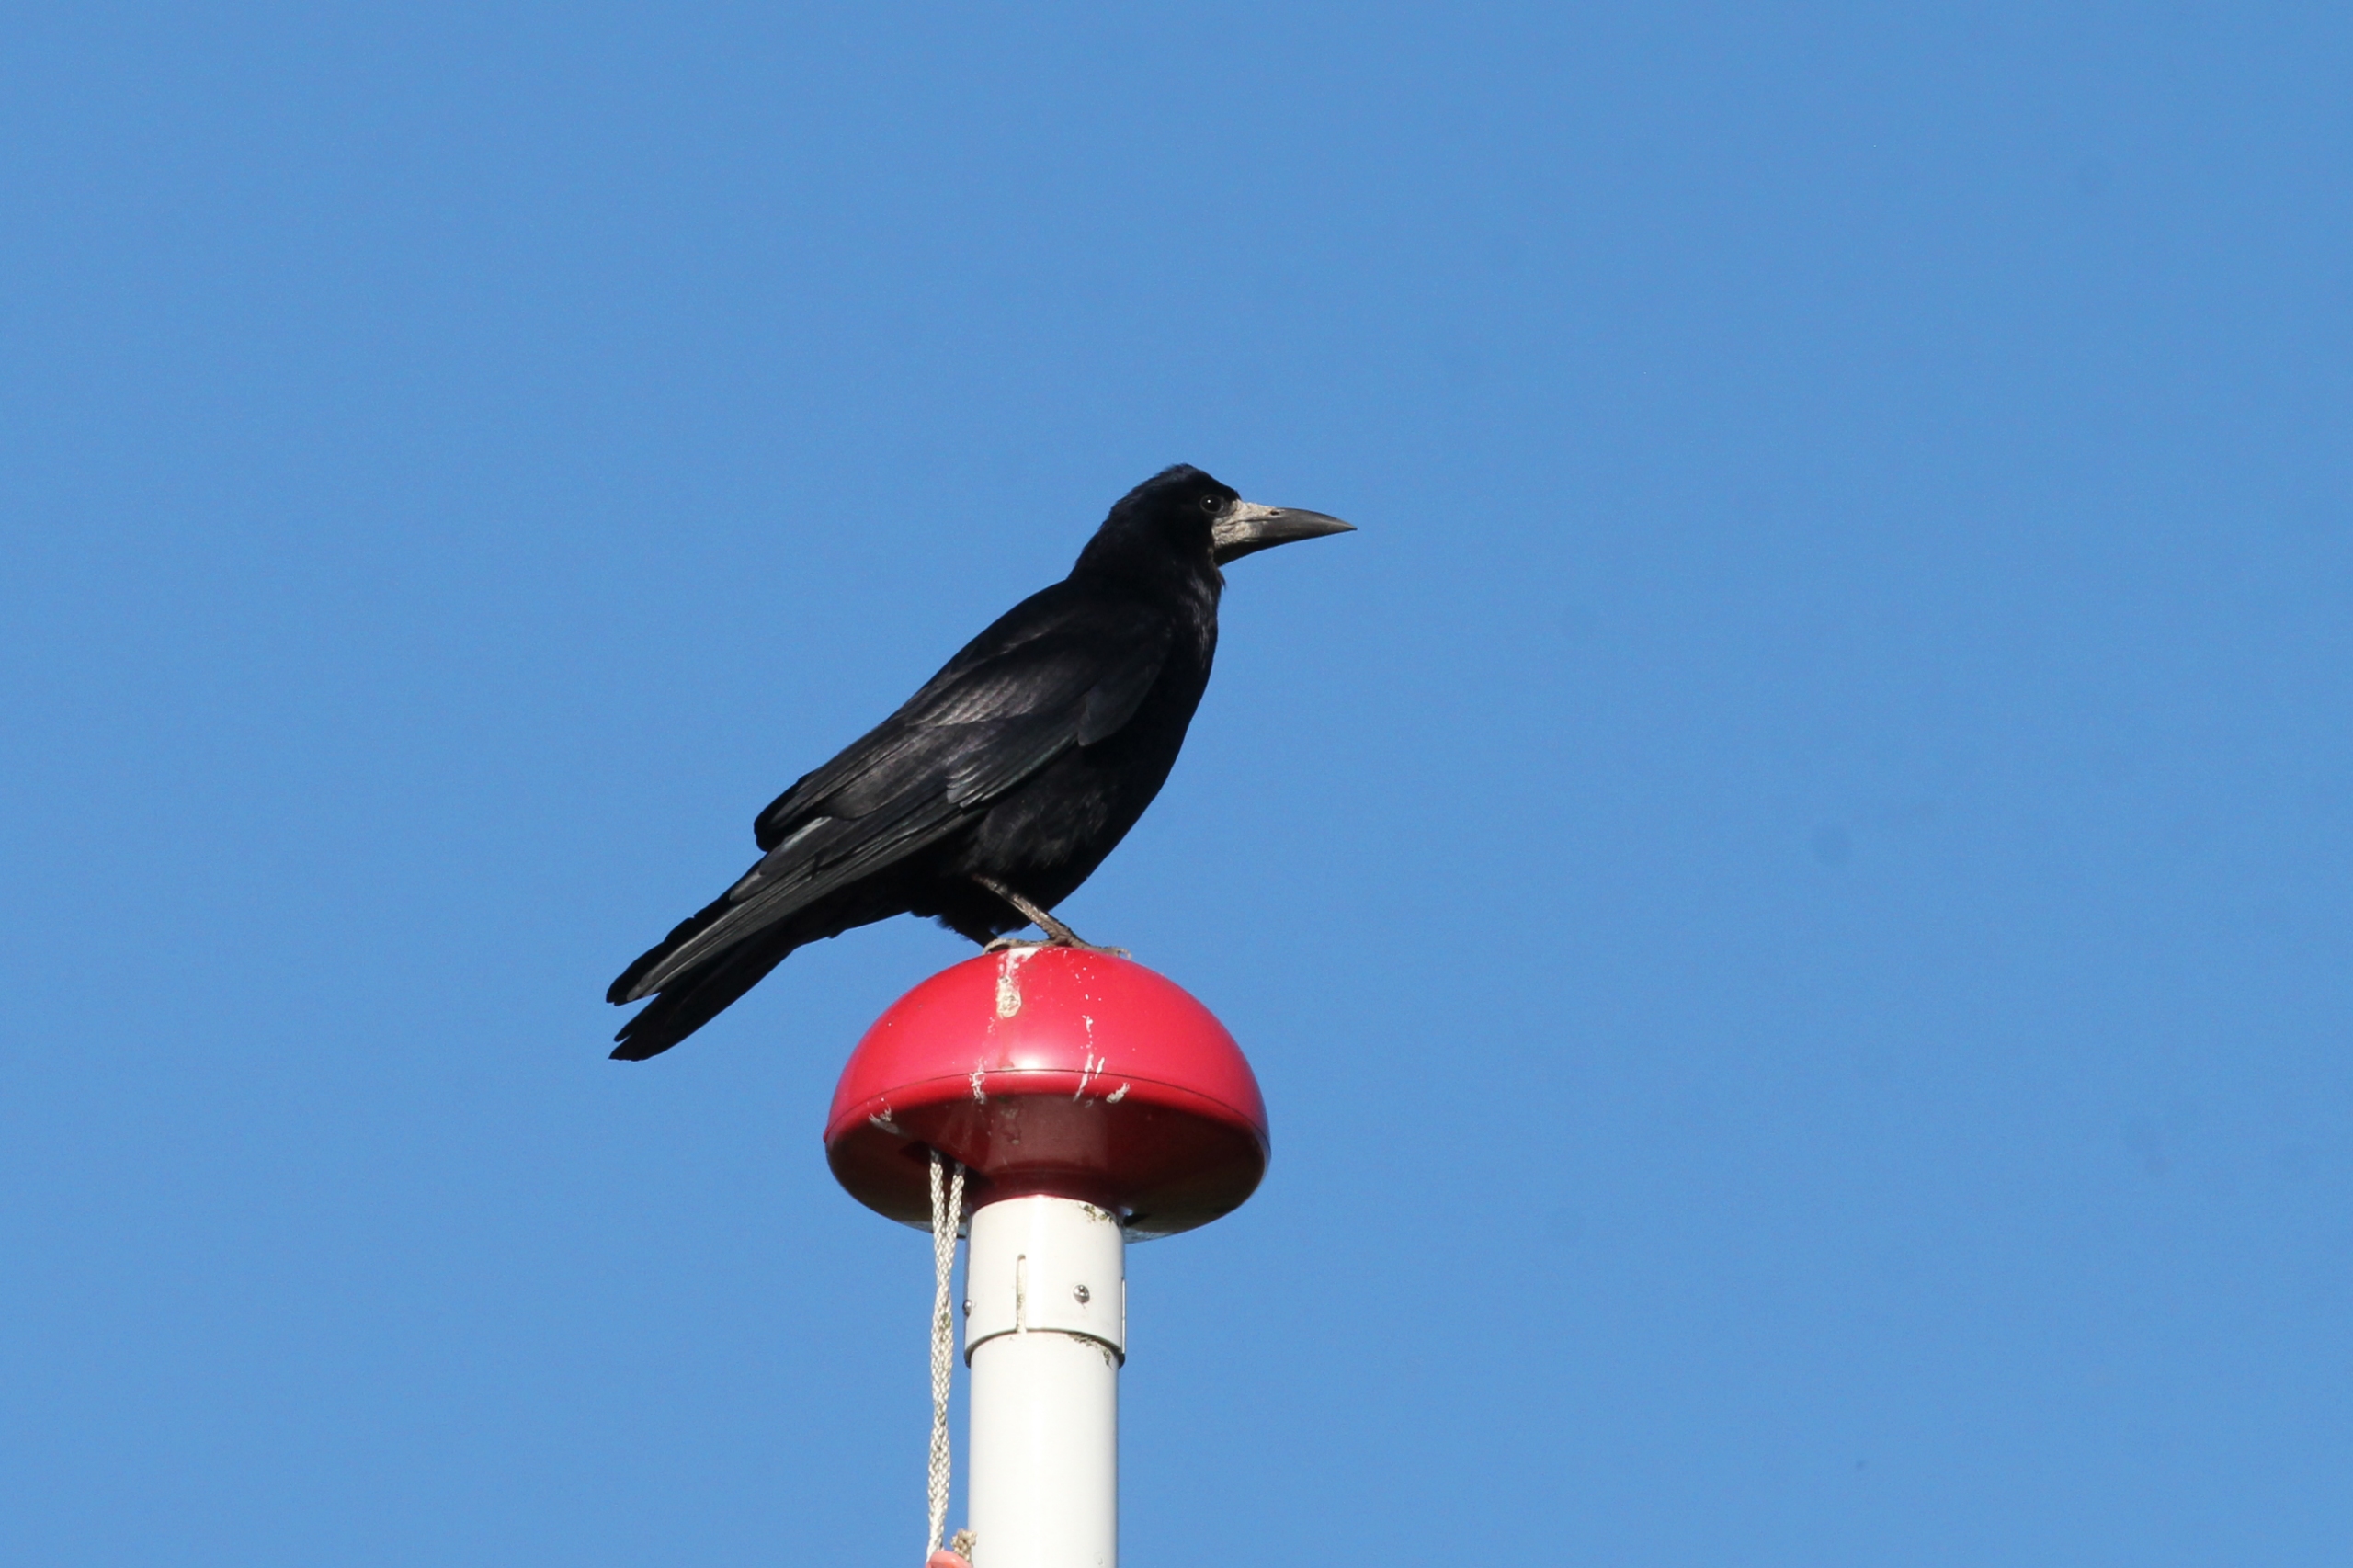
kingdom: Animalia
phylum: Chordata
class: Aves
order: Passeriformes
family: Corvidae
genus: Corvus
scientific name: Corvus frugilegus
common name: Råge
